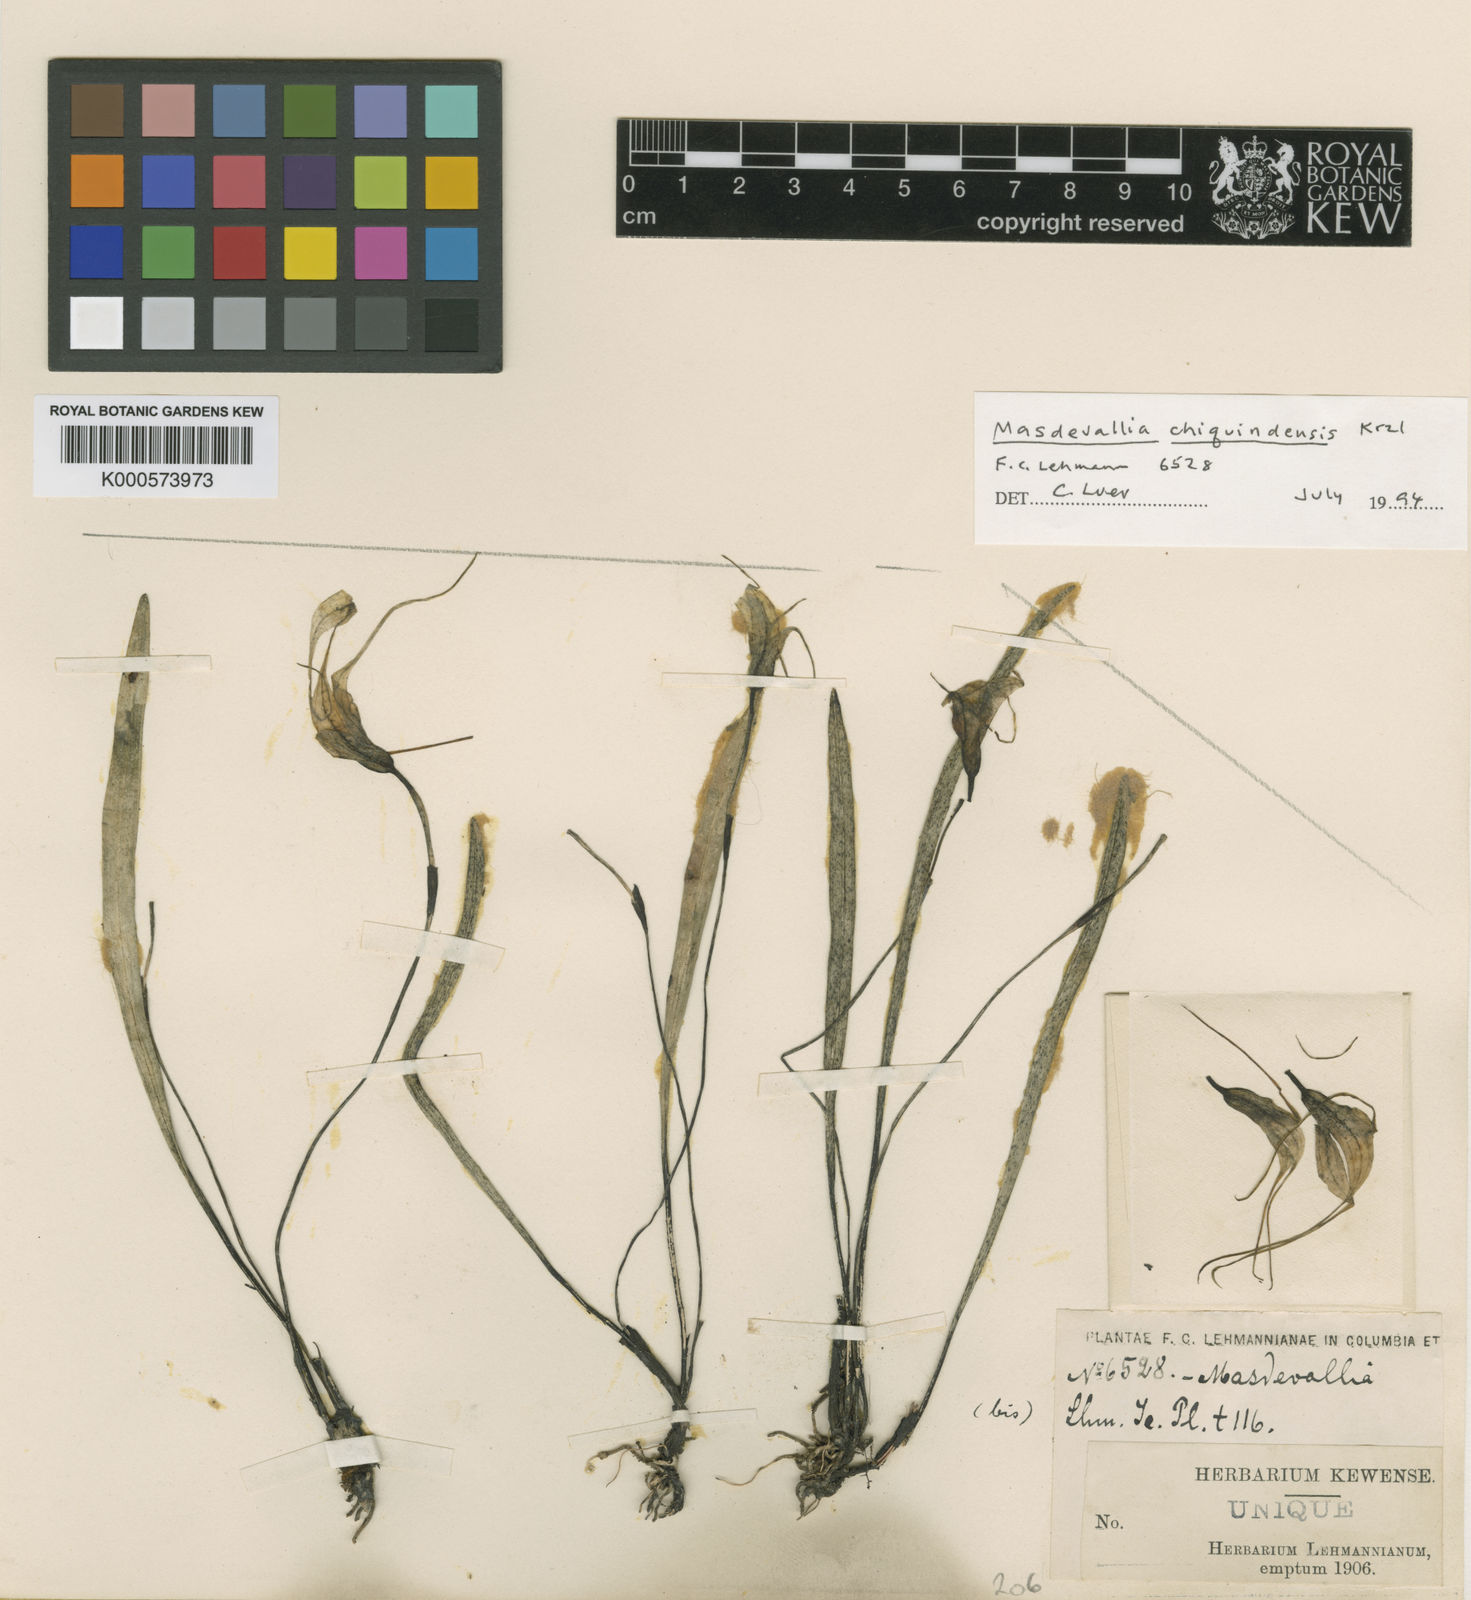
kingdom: Plantae
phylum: Tracheophyta
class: Liliopsida
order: Asparagales
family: Orchidaceae
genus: Masdevallia
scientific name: Masdevallia leucantha
